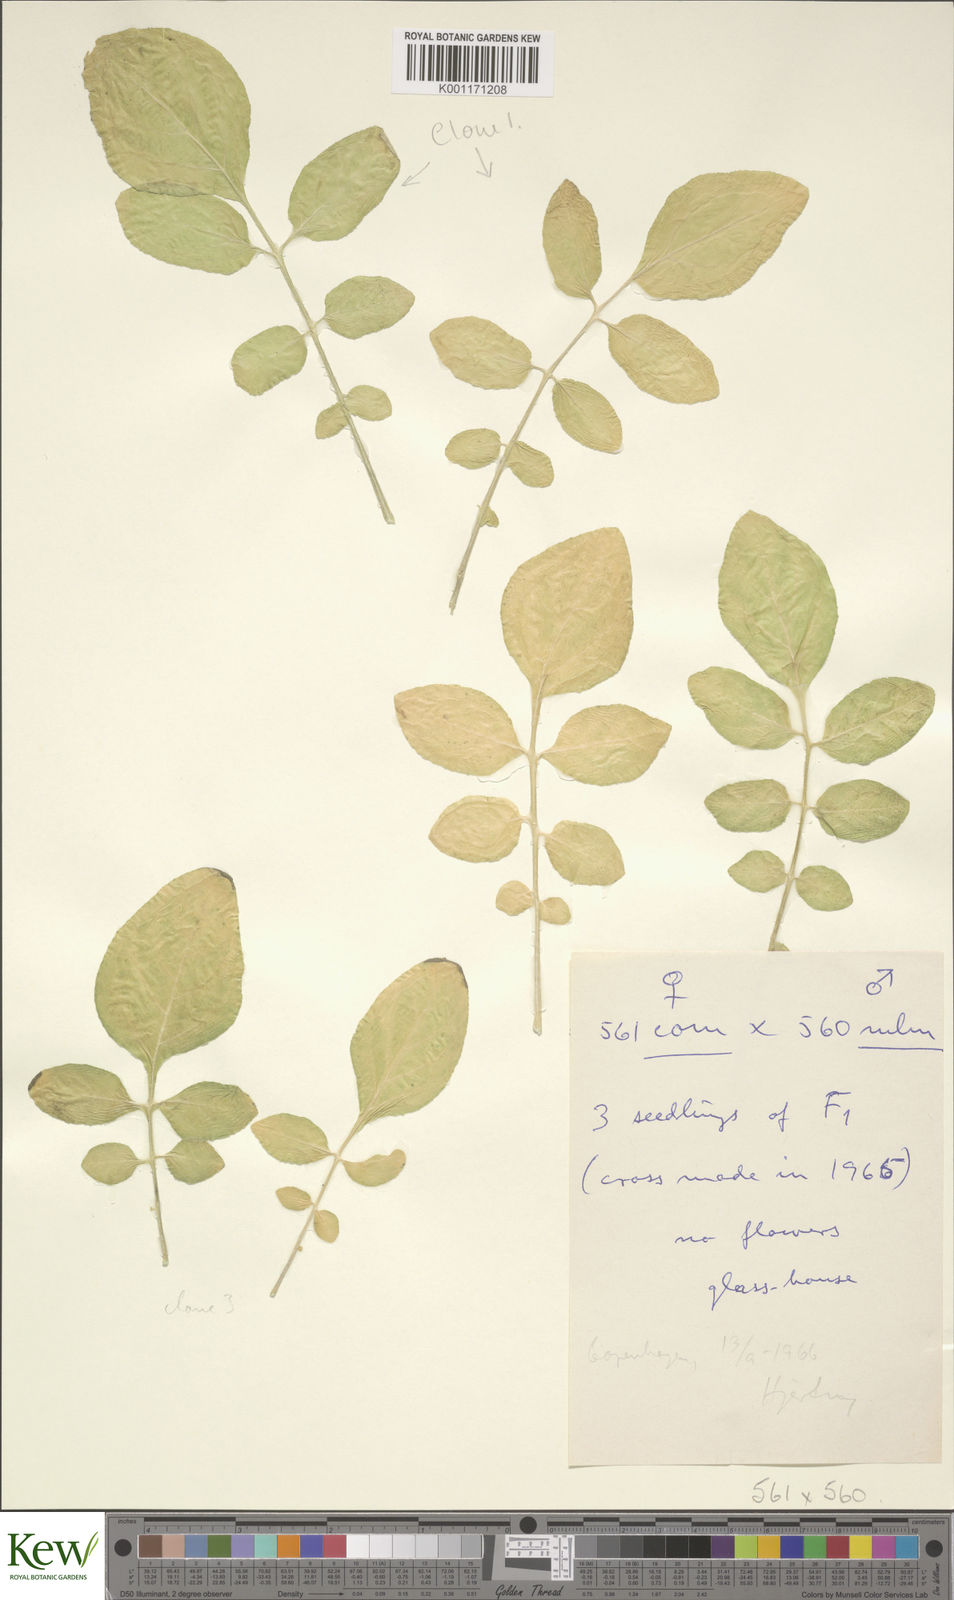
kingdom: Plantae
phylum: Tracheophyta
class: Magnoliopsida
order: Solanales
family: Solanaceae
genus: Solanum
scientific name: Solanum commersonii
